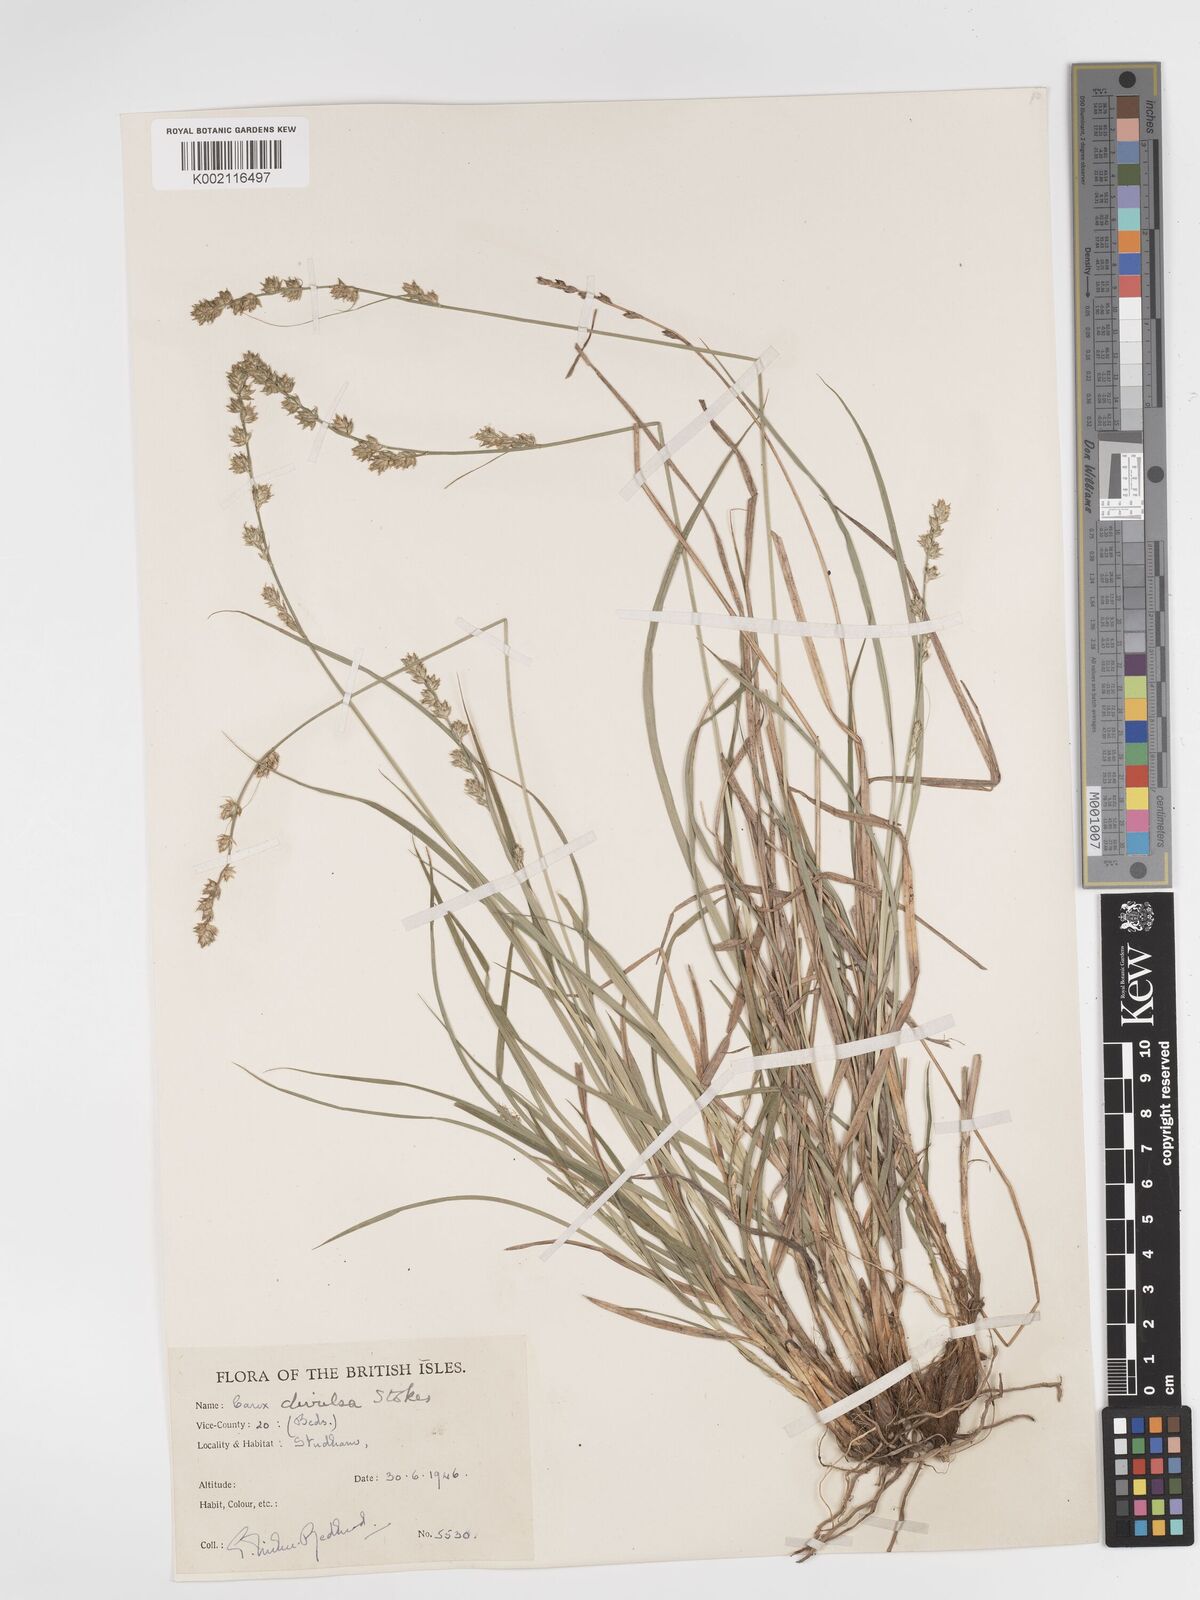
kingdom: Plantae
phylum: Tracheophyta
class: Liliopsida
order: Poales
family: Cyperaceae
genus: Carex
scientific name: Carex divulsa
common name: Grassland sedge
